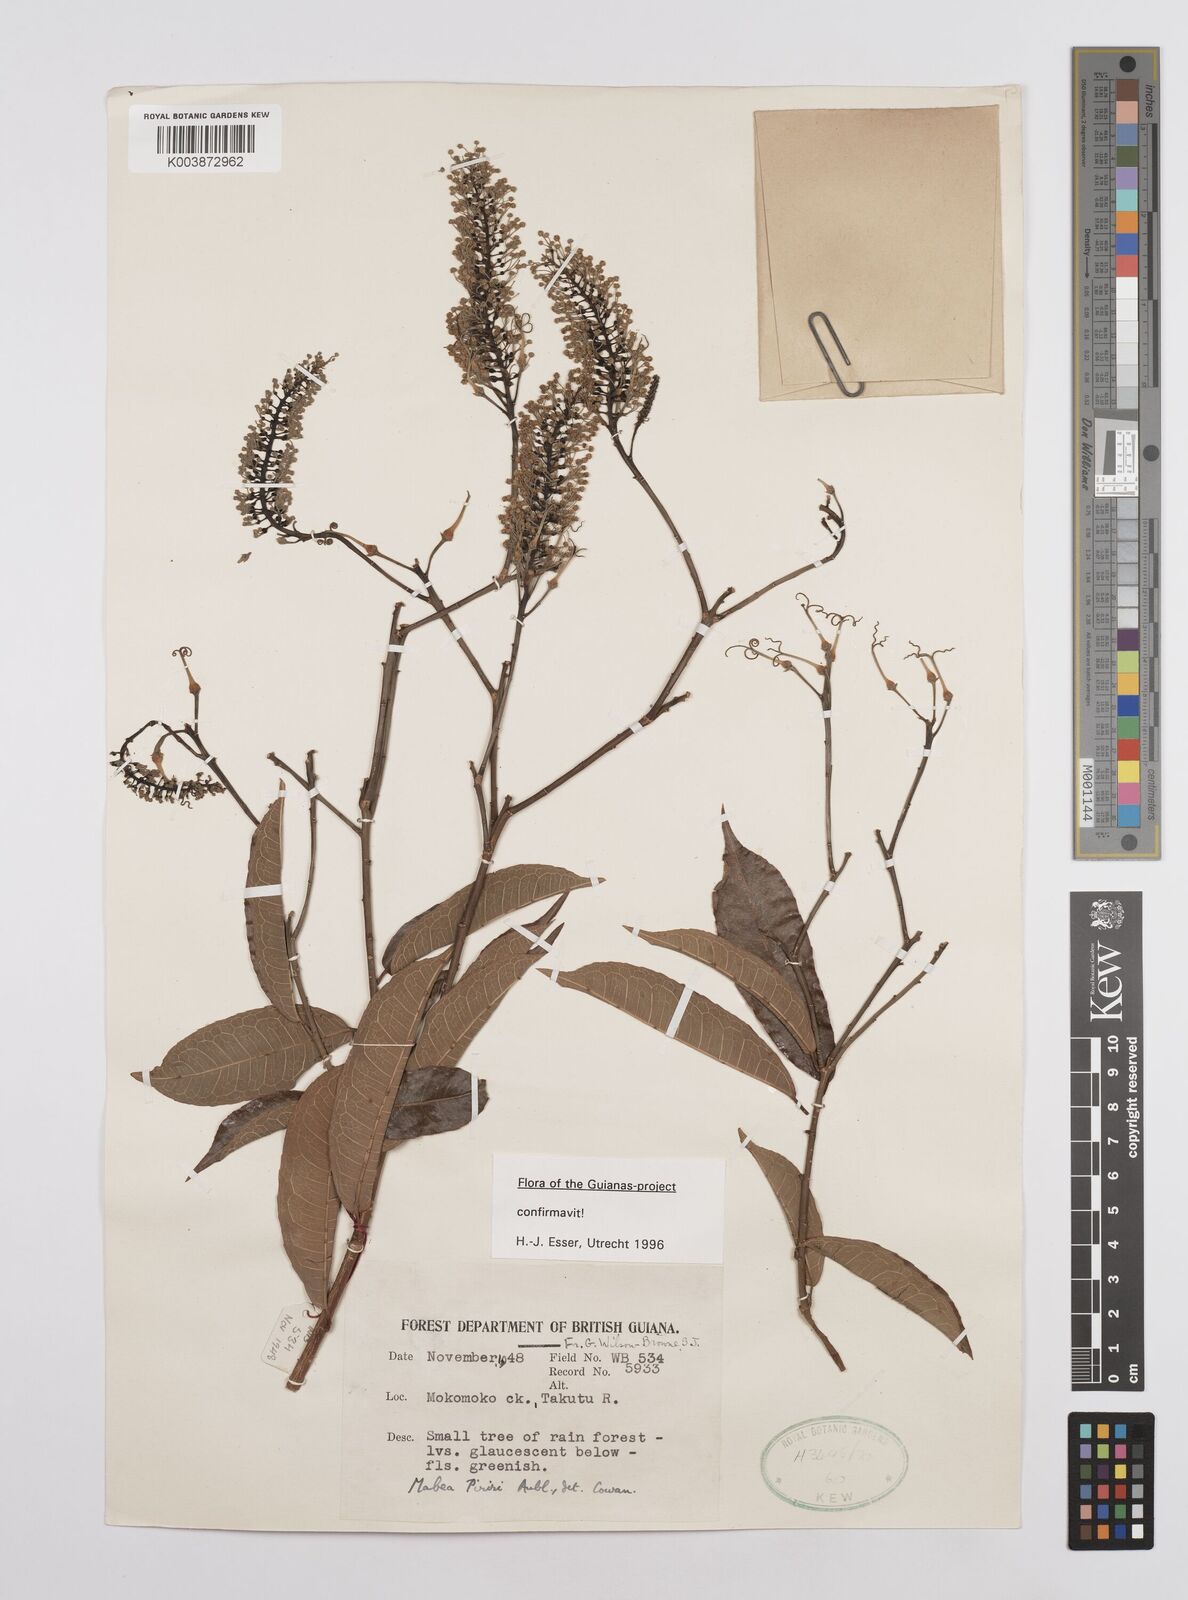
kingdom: Plantae
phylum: Tracheophyta
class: Magnoliopsida
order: Malpighiales
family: Euphorbiaceae
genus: Mabea
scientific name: Mabea piriri
